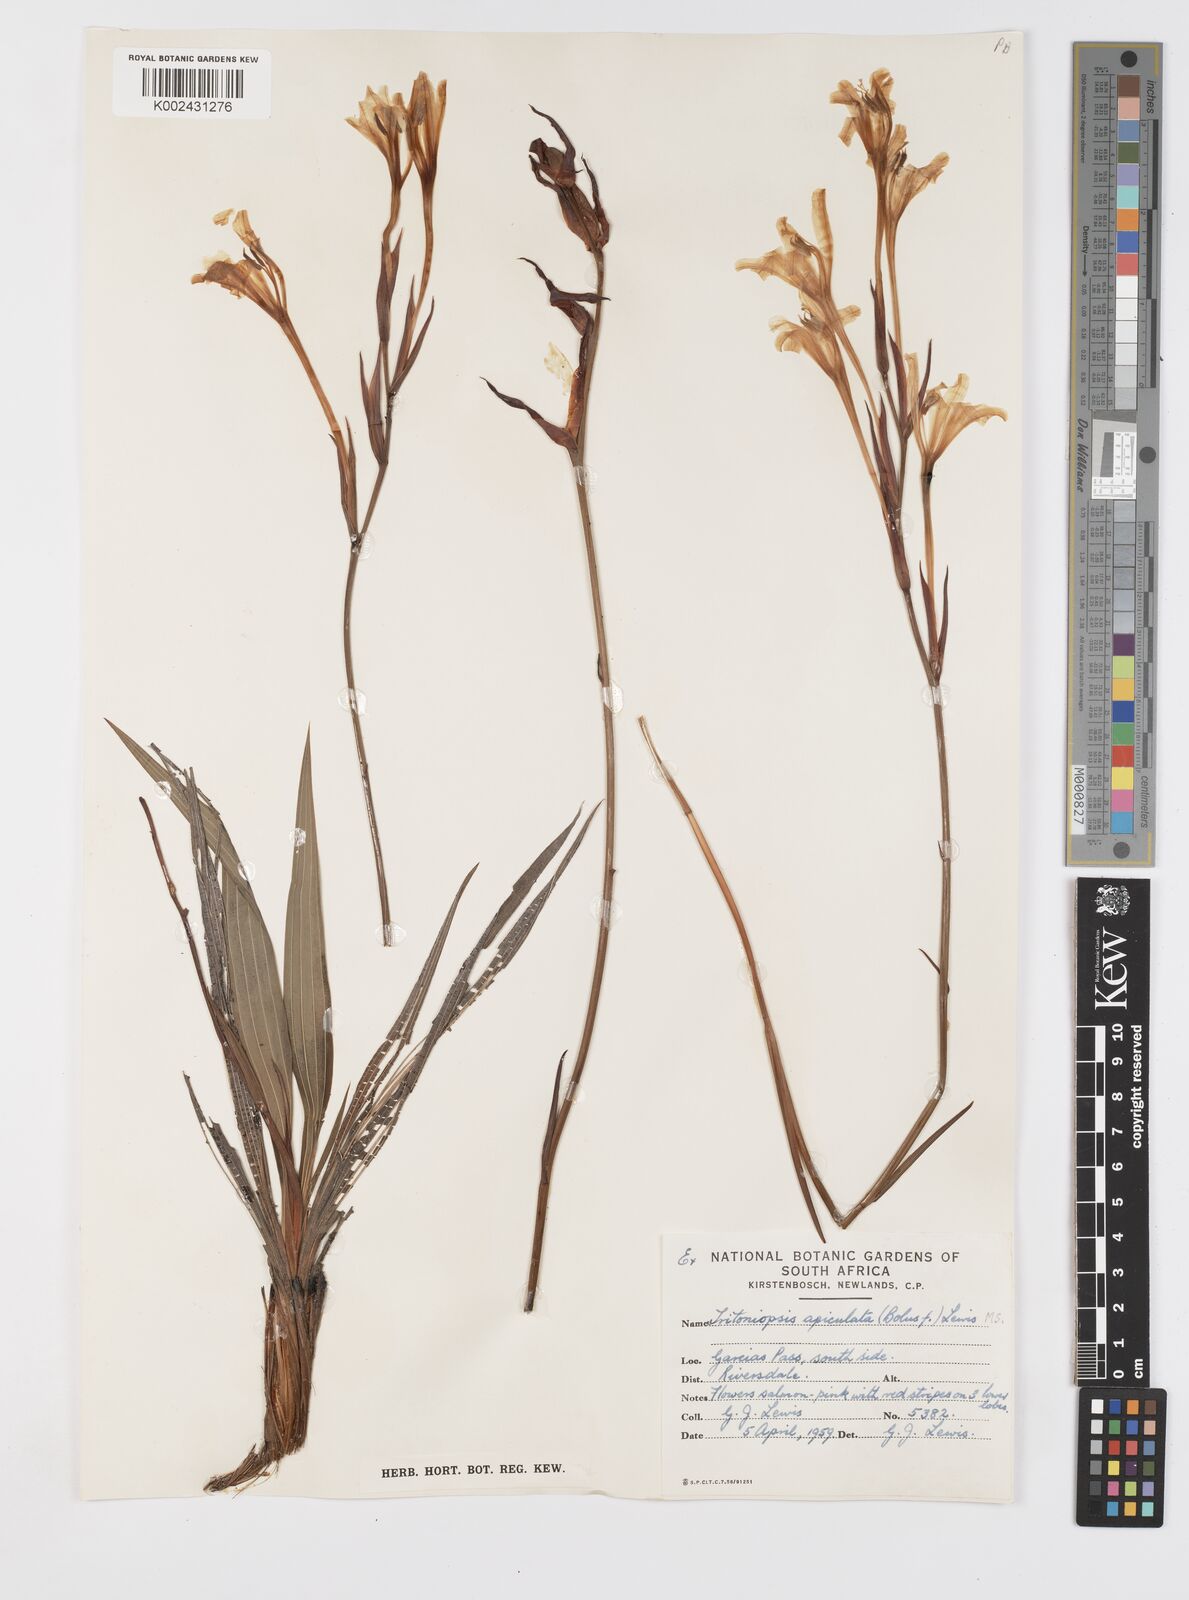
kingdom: Plantae
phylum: Tracheophyta
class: Liliopsida
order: Asparagales
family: Iridaceae
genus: Tritoniopsis
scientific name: Tritoniopsis revoluta
